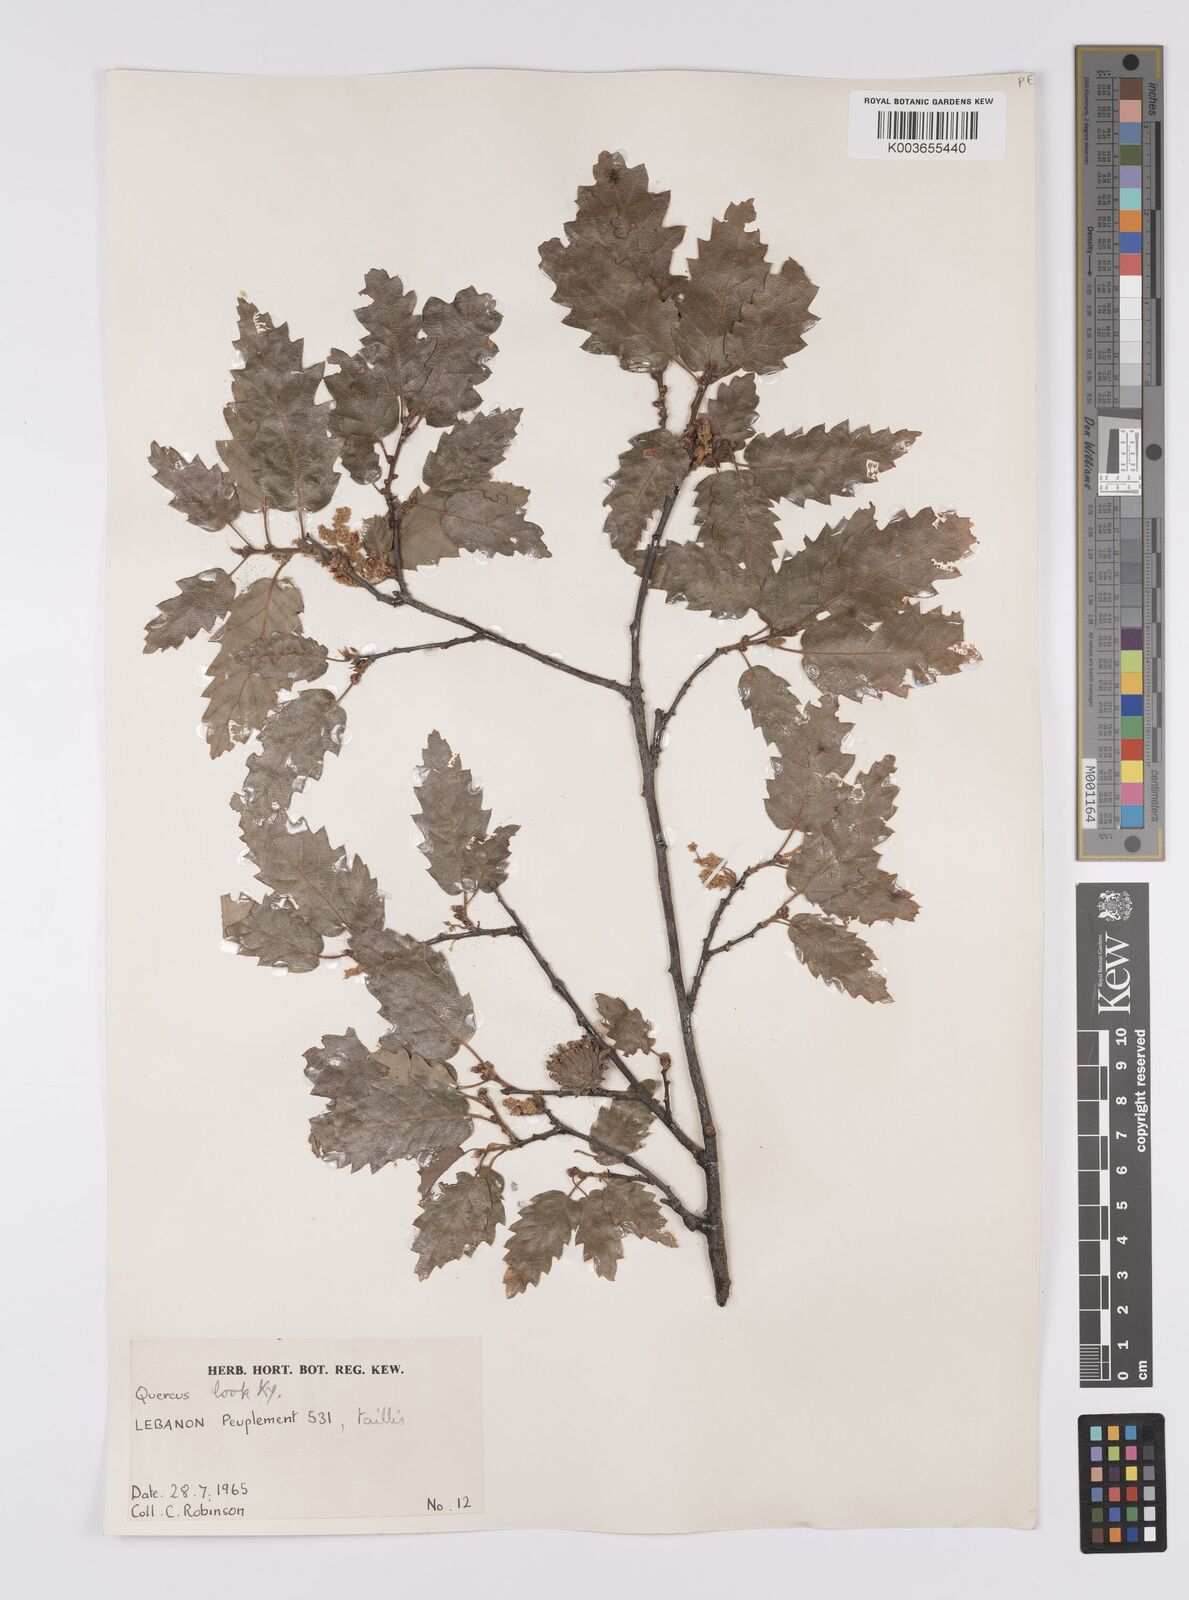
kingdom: Plantae
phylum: Tracheophyta
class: Magnoliopsida
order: Fagales
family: Fagaceae
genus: Quercus
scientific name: Quercus look
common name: Look oak
